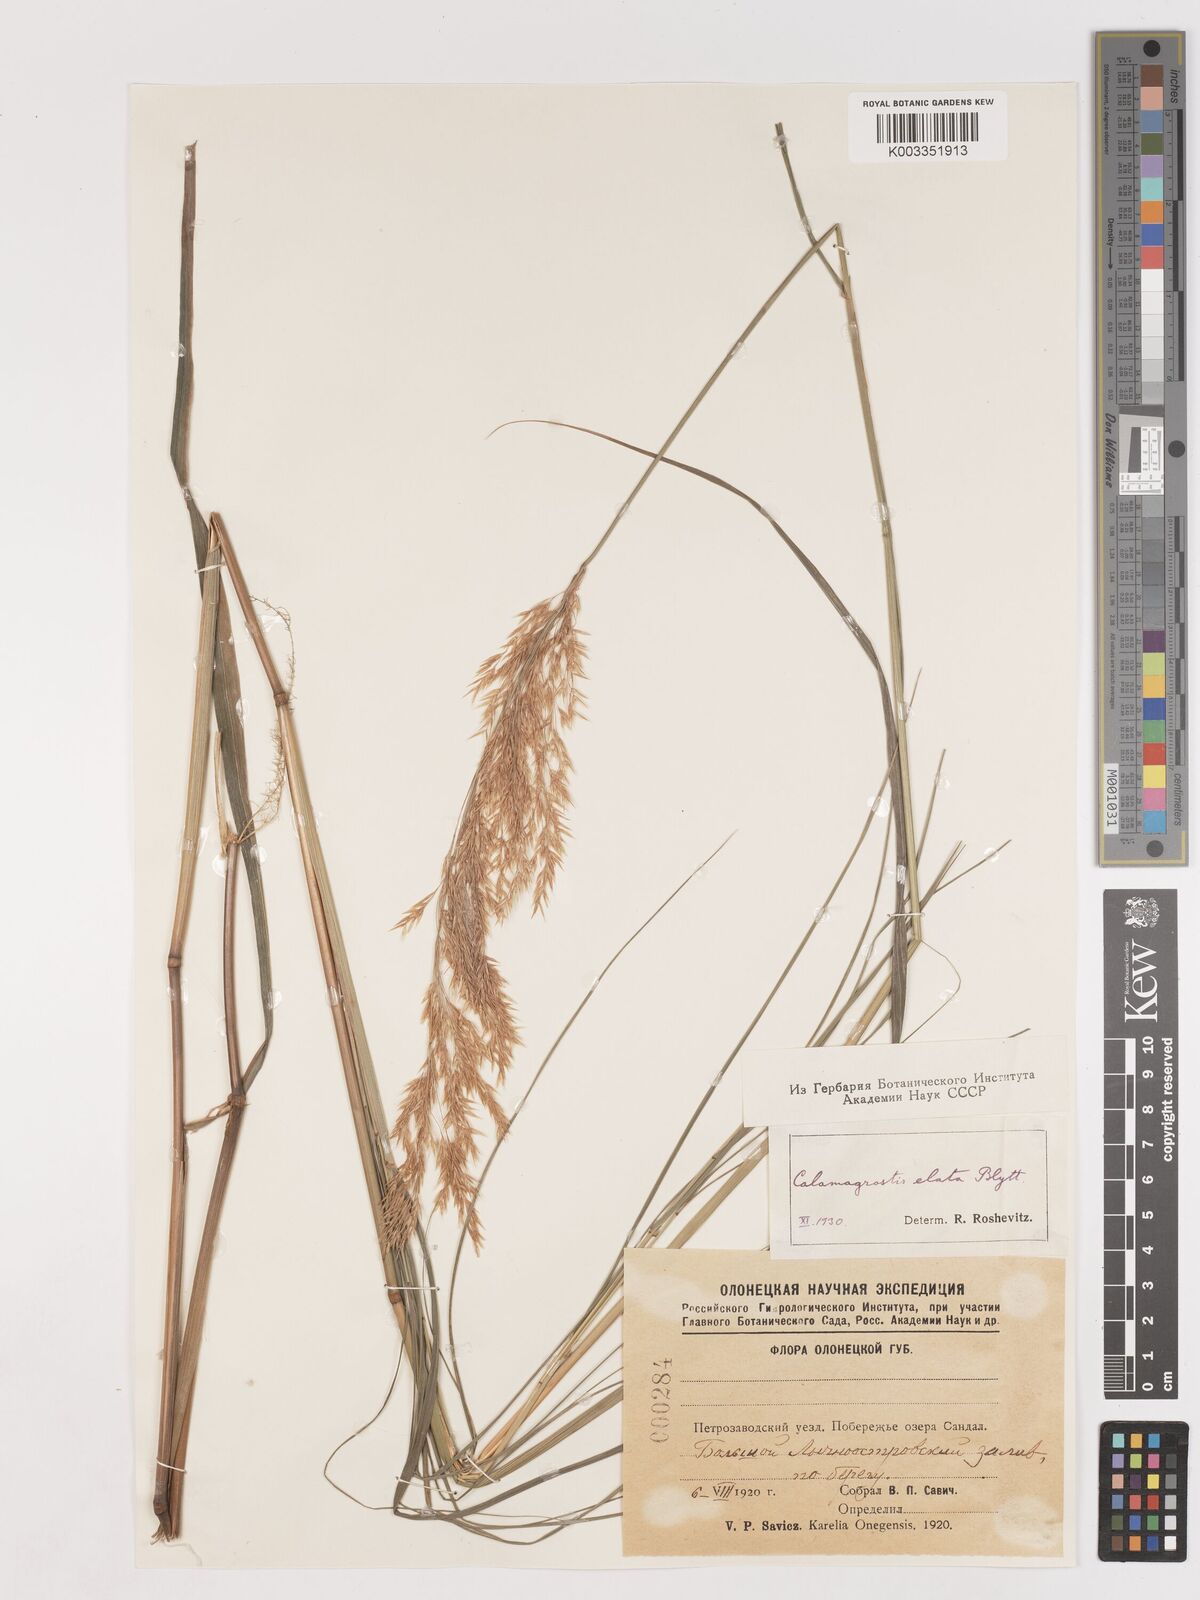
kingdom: Plantae
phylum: Tracheophyta
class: Liliopsida
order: Poales
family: Poaceae
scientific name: Poaceae
